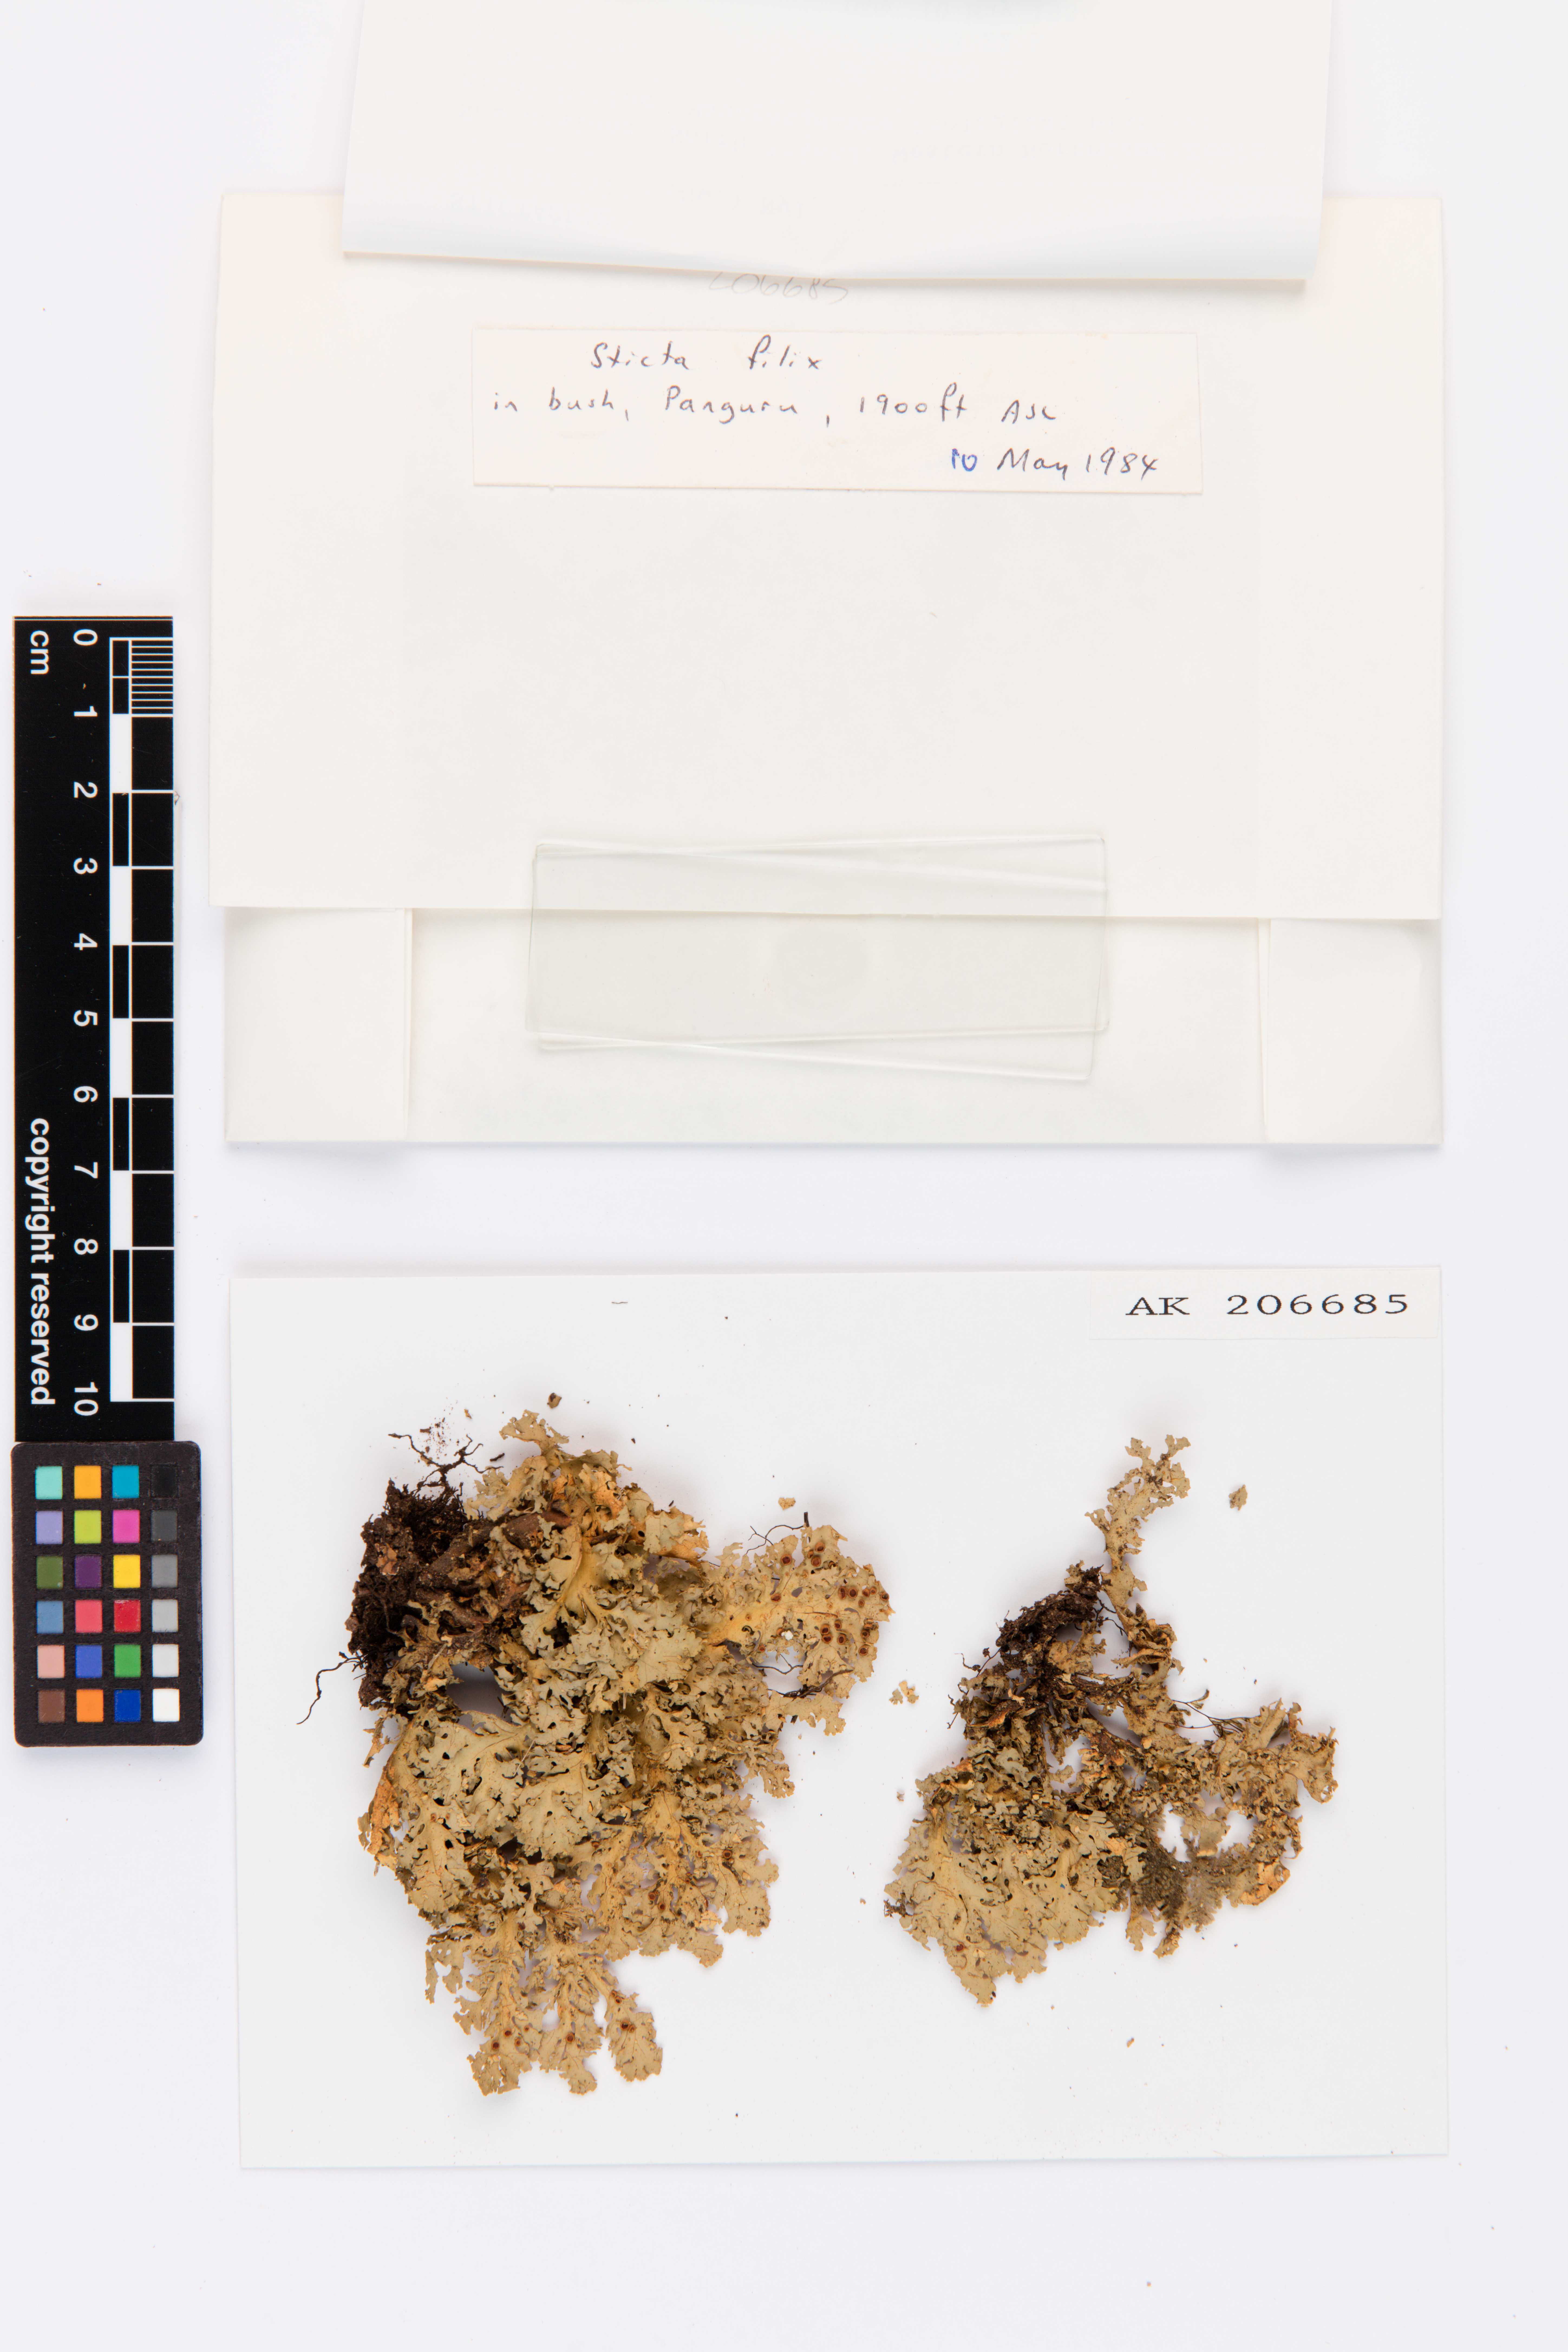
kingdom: Fungi
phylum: Ascomycota
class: Lecanoromycetes
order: Peltigerales
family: Lobariaceae
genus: Sticta
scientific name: Sticta filix
